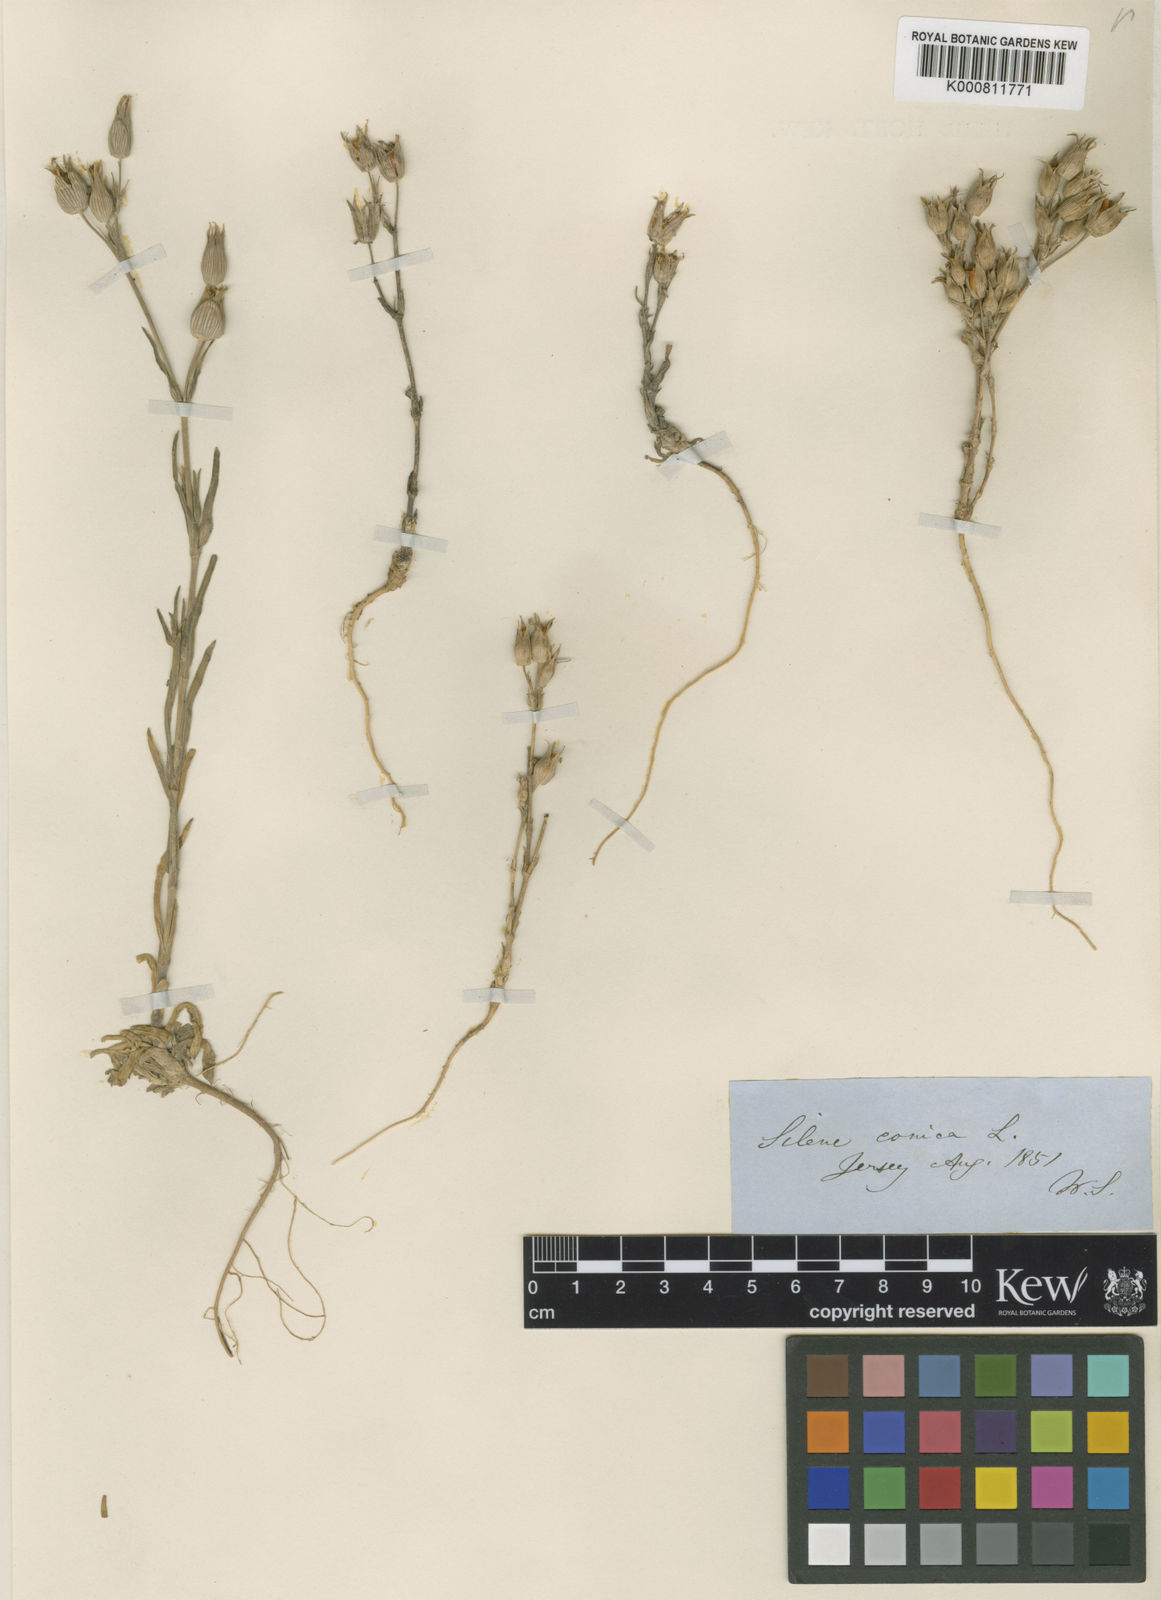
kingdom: Plantae
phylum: Tracheophyta
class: Magnoliopsida
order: Caryophyllales
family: Caryophyllaceae
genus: Silene
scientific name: Silene conica
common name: Sand catchfly
